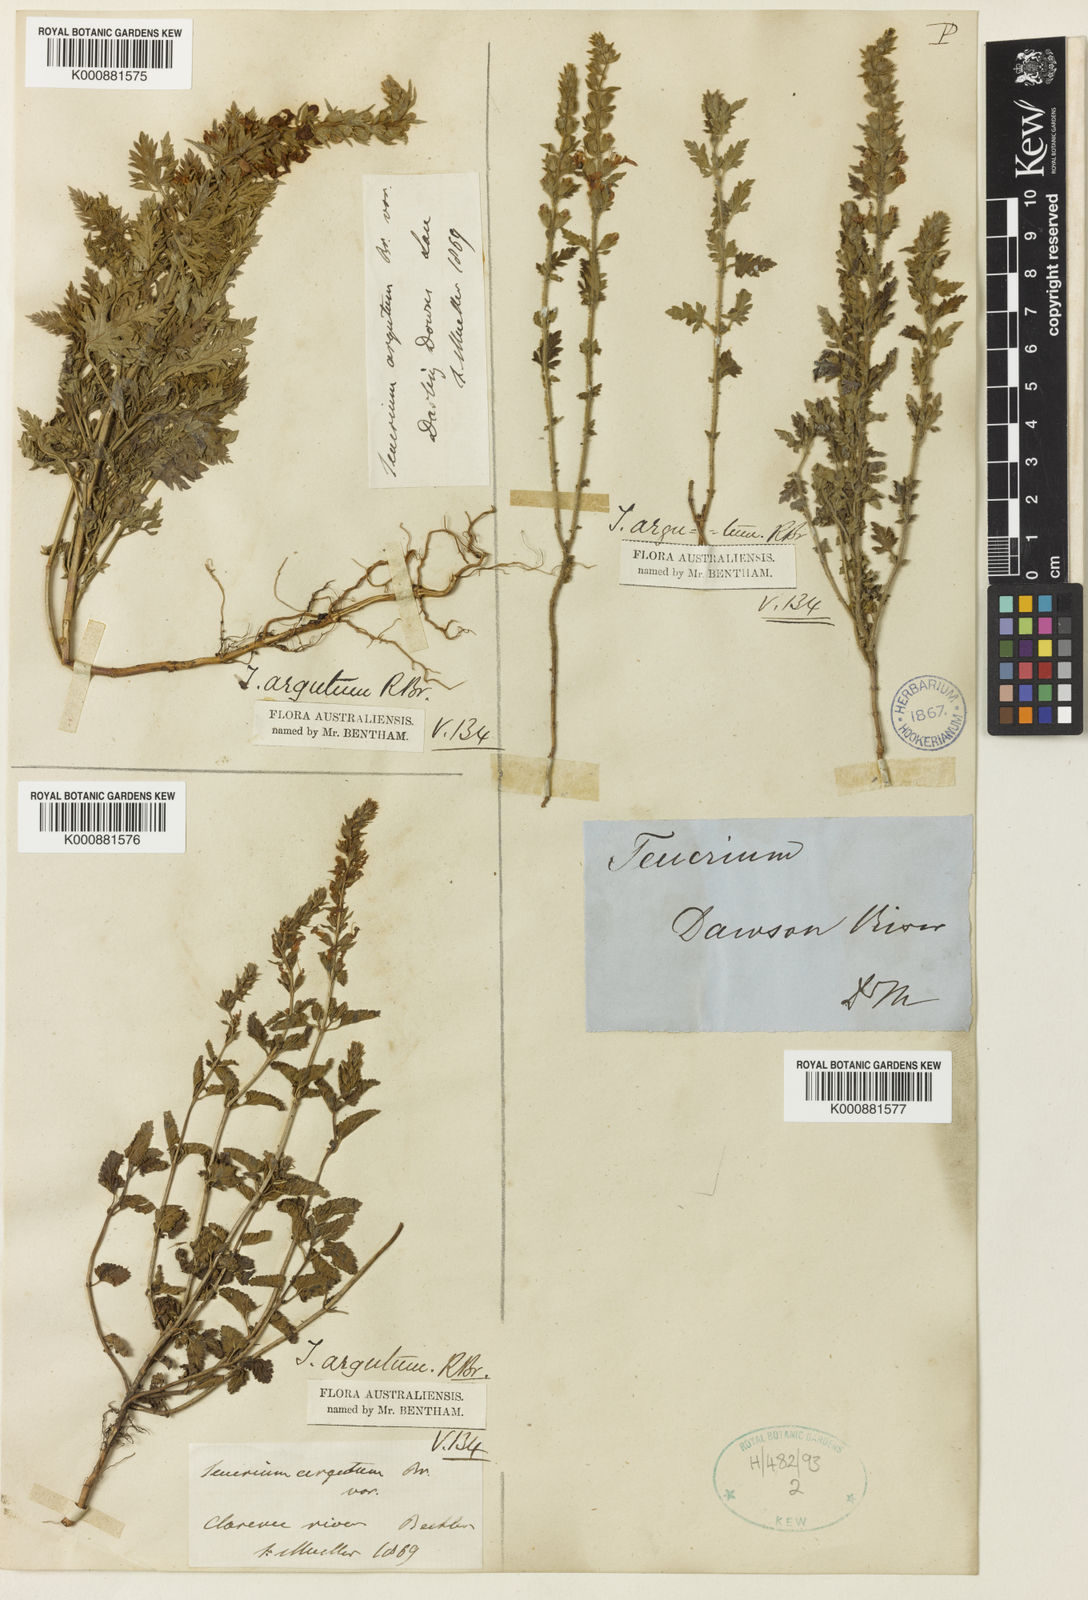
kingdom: Plantae
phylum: Tracheophyta
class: Magnoliopsida
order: Lamiales
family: Lamiaceae
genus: Teucrium
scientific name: Teucrium argutum
